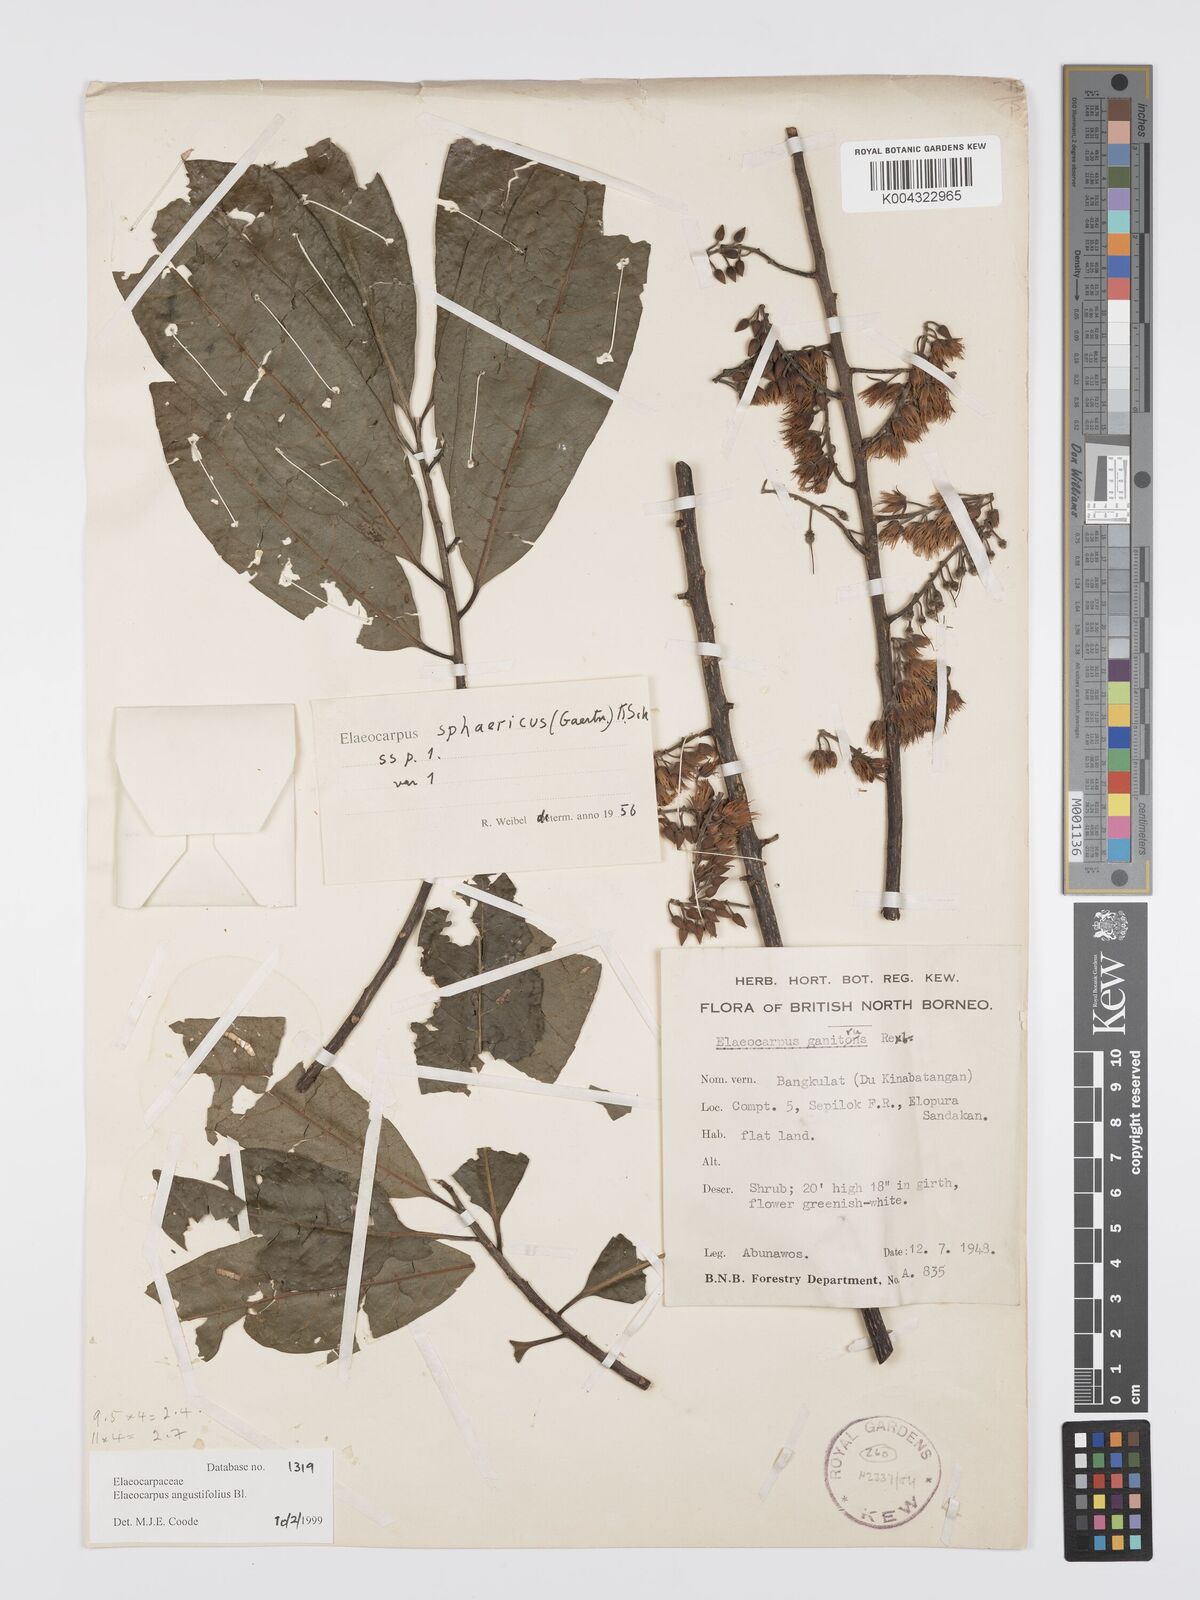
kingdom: Plantae
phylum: Tracheophyta
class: Magnoliopsida
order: Oxalidales
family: Elaeocarpaceae
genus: Elaeocarpus
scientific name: Elaeocarpus
